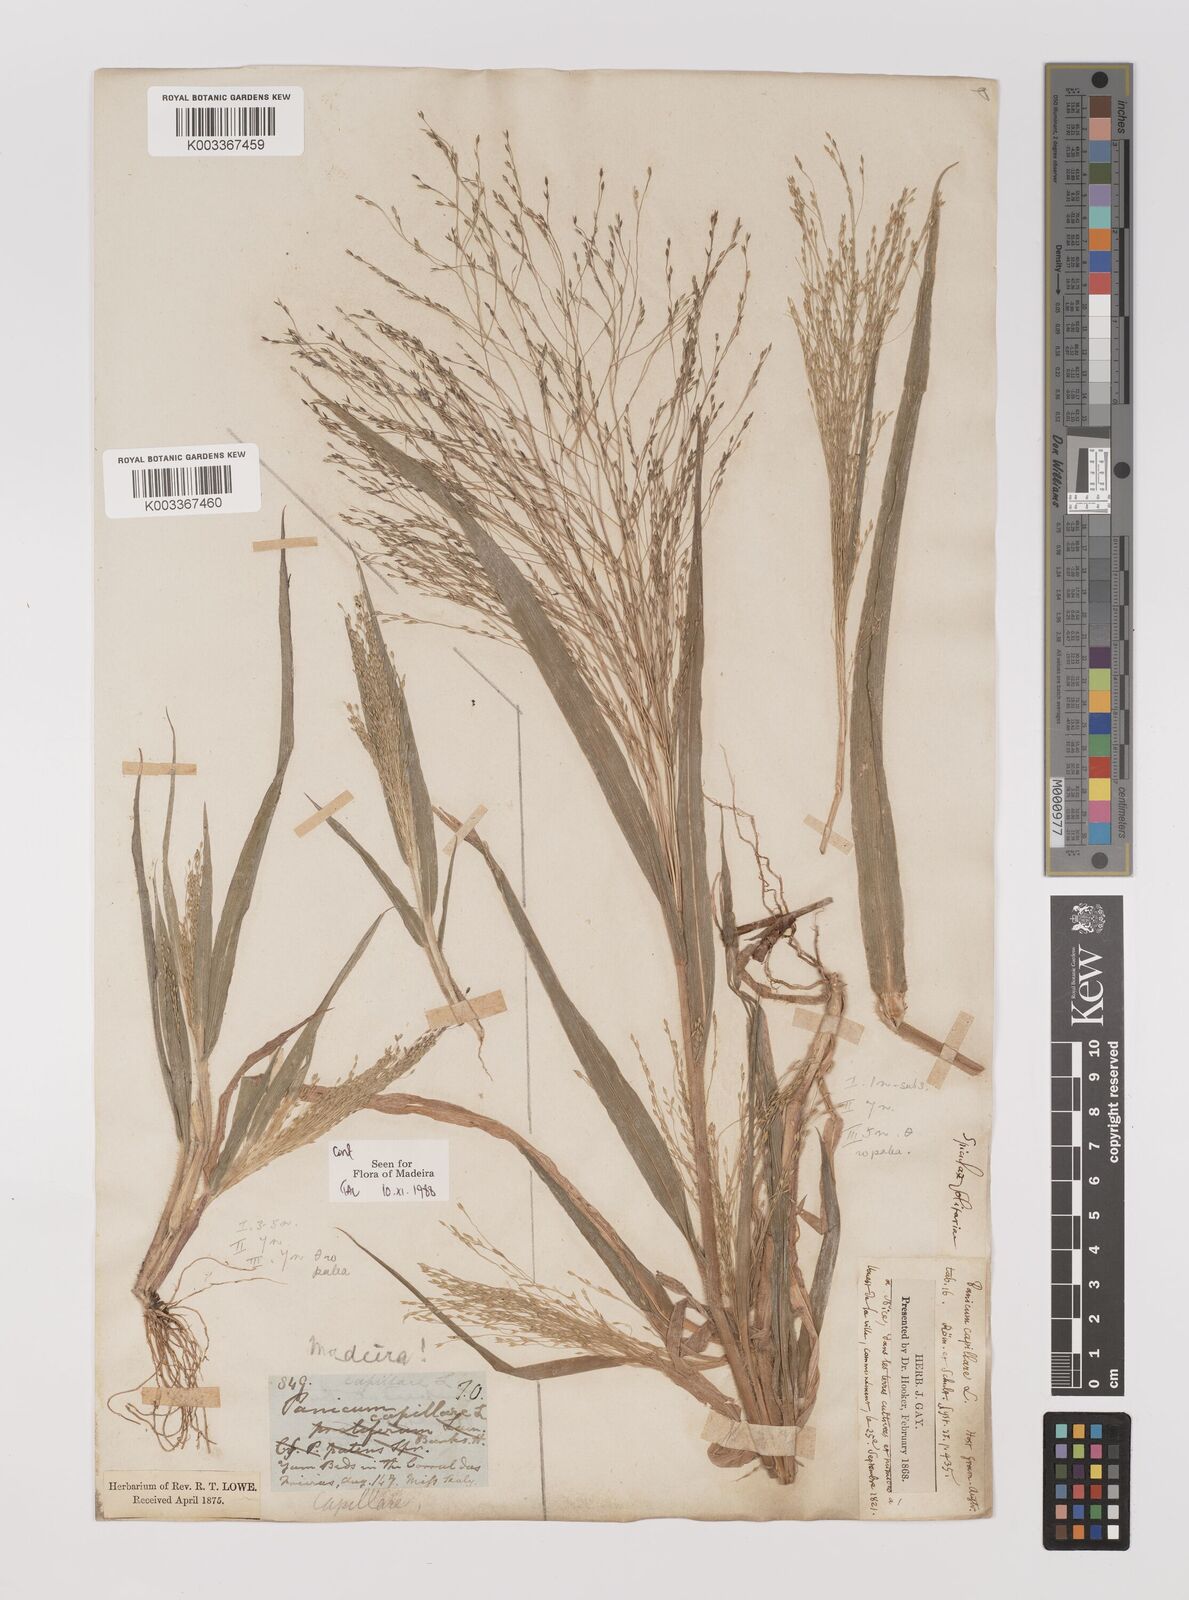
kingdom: Plantae
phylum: Tracheophyta
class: Liliopsida
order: Poales
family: Poaceae
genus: Panicum
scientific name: Panicum capillare
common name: Witch-grass
